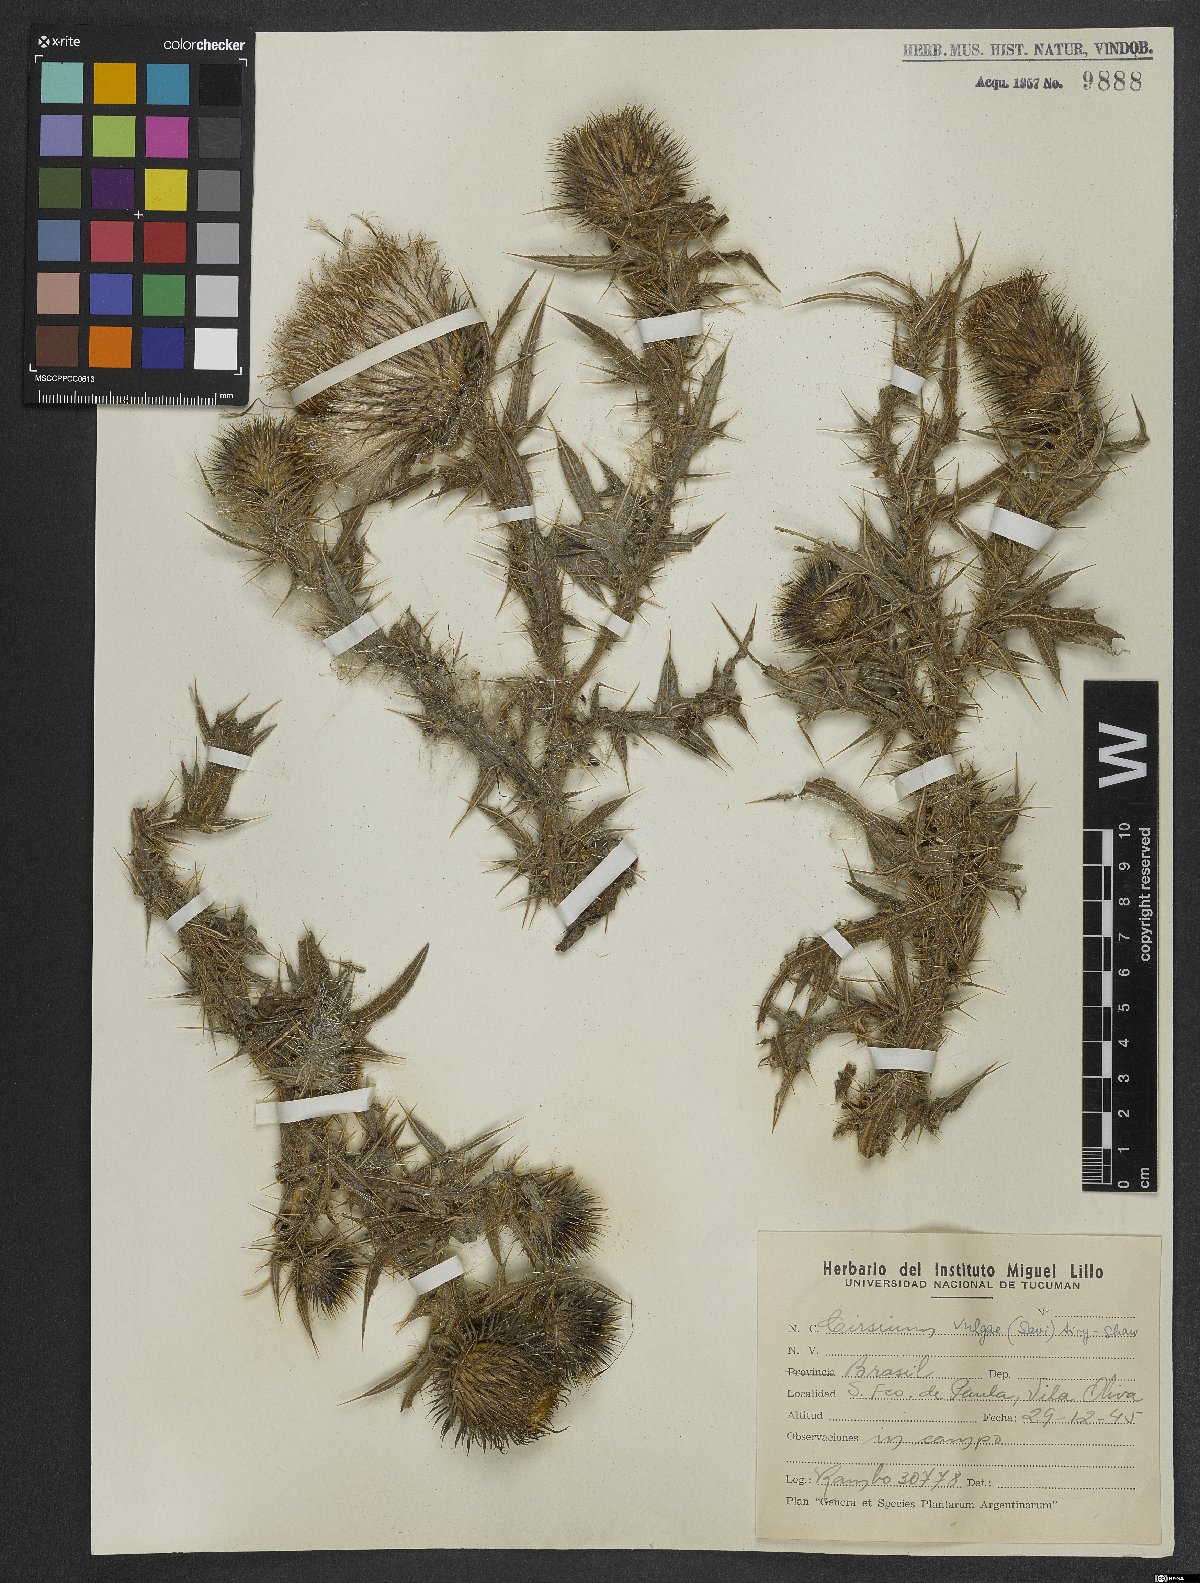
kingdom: Plantae
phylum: Tracheophyta
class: Magnoliopsida
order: Asterales
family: Asteraceae
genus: Cirsium
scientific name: Cirsium vulgare
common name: Bull thistle
